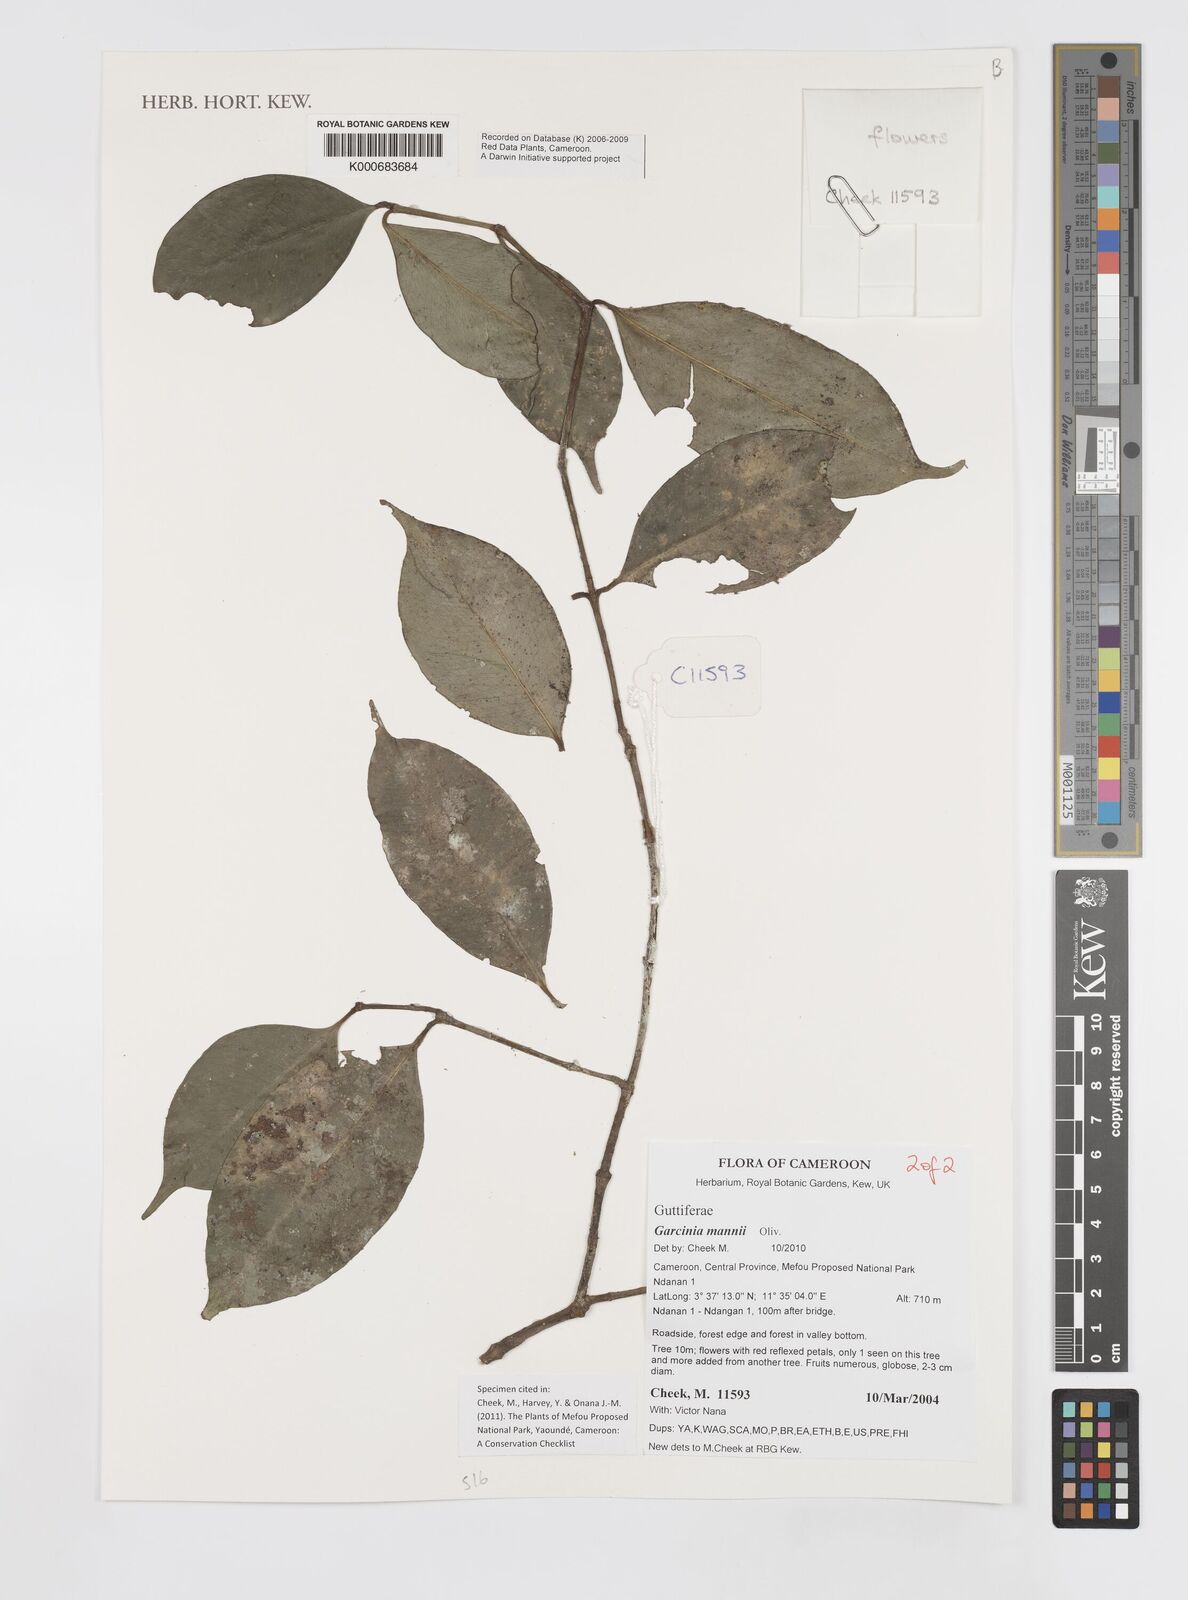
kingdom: Plantae
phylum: Tracheophyta
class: Magnoliopsida
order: Malpighiales
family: Clusiaceae
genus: Garcinia
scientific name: Garcinia mannii
